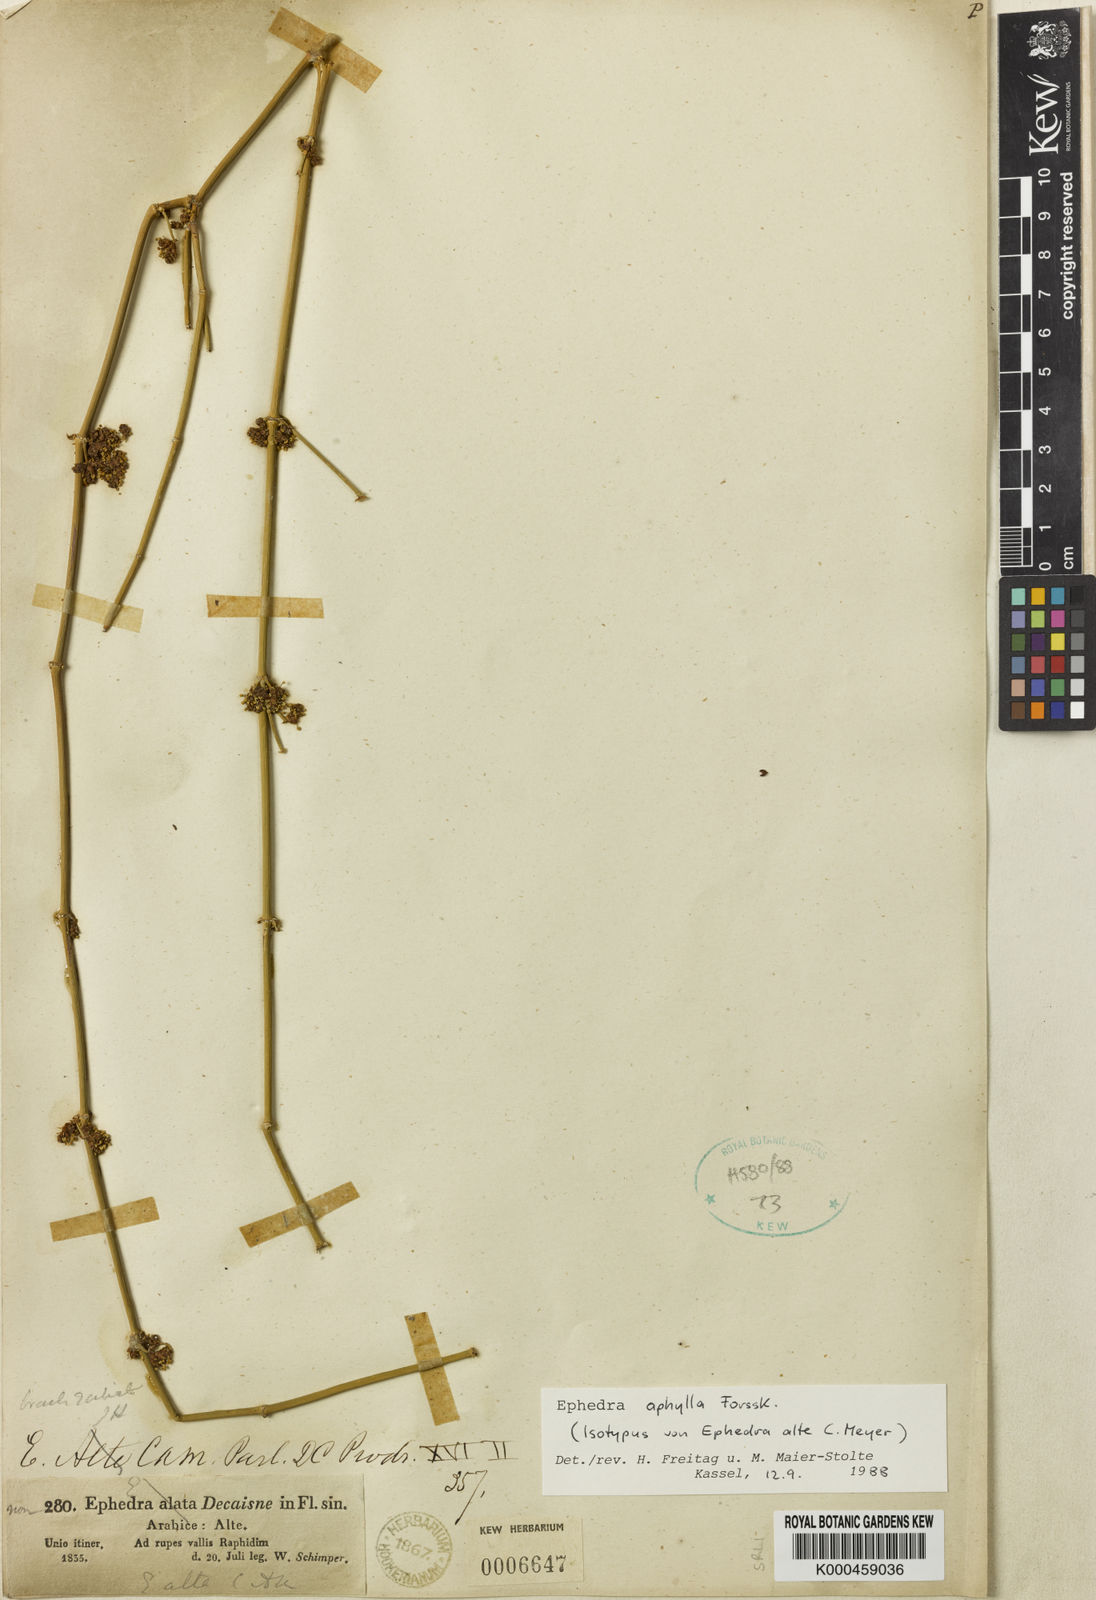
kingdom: Plantae
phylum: Tracheophyta
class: Gnetopsida
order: Ephedrales
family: Ephedraceae
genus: Ephedra
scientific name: Ephedra aphylla
